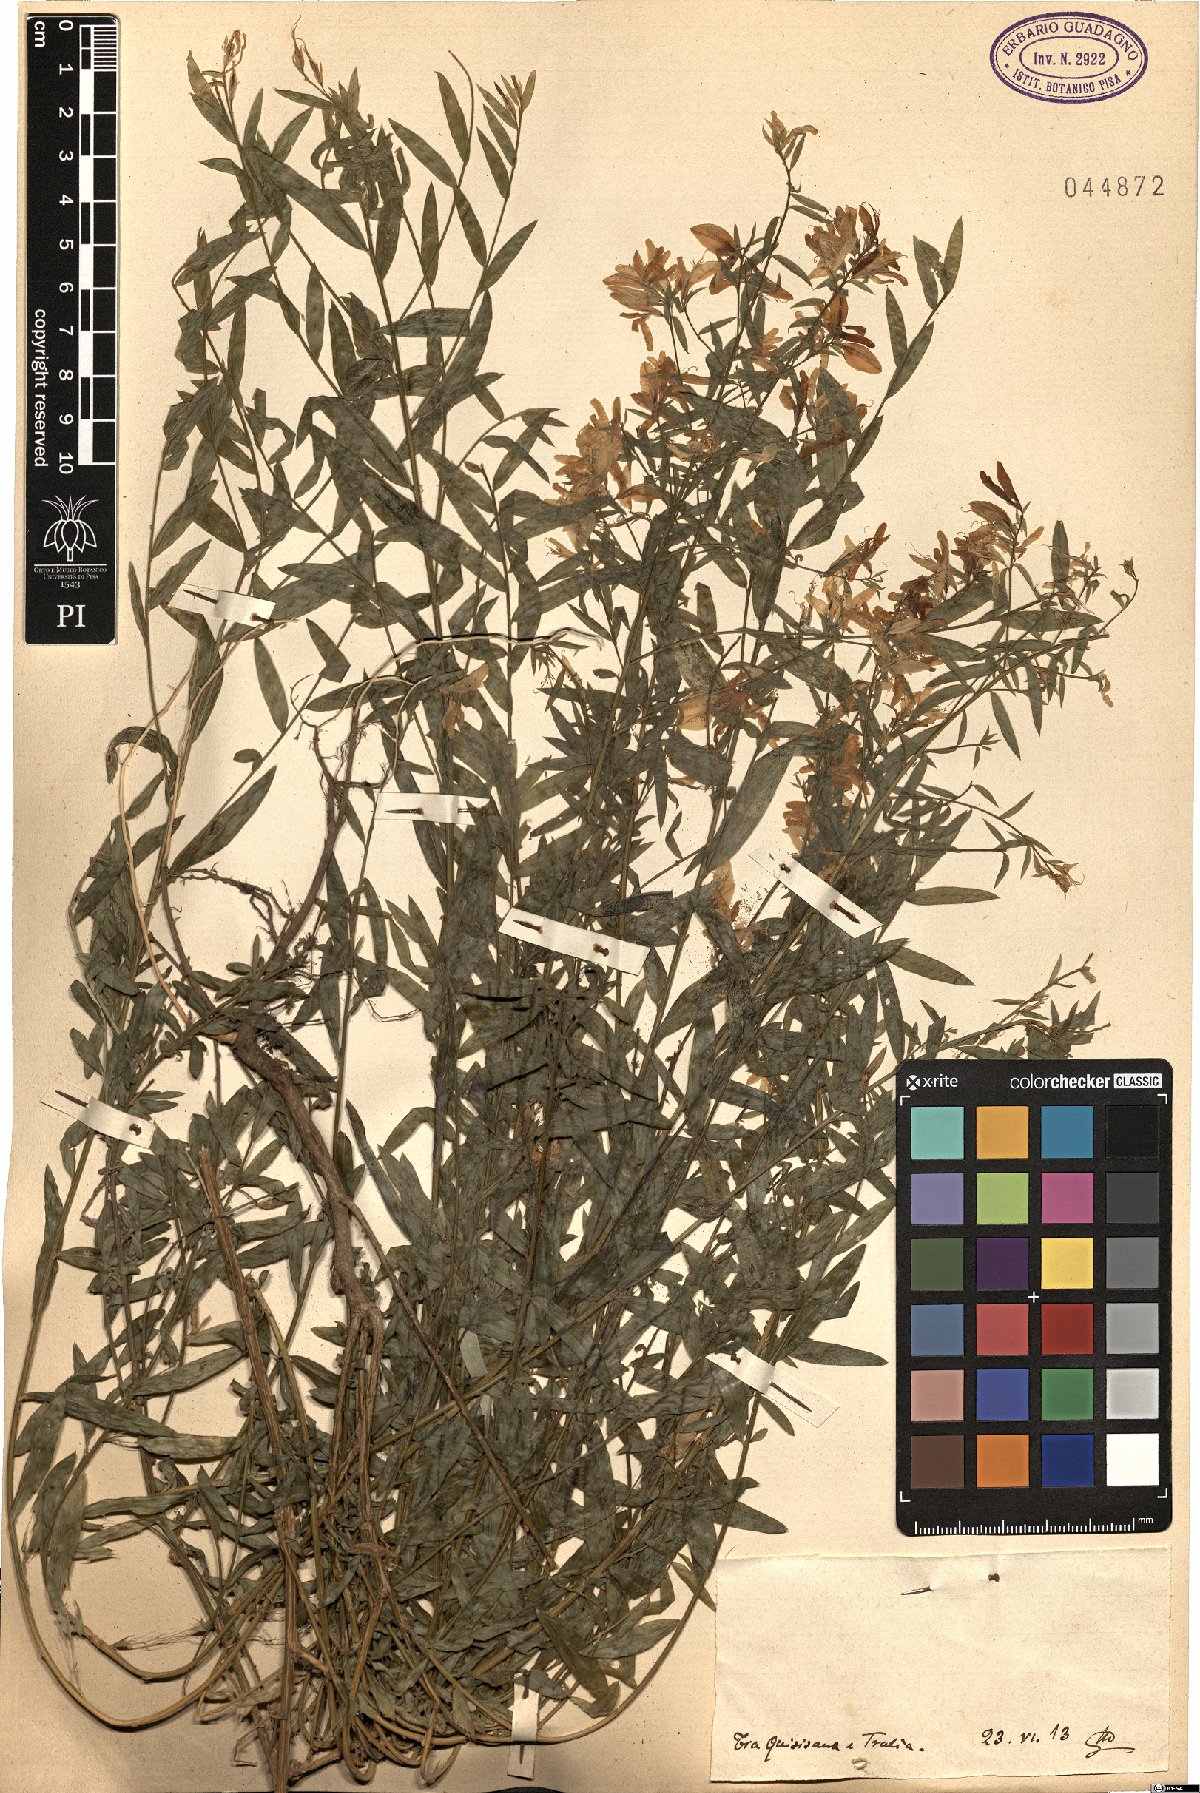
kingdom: Plantae
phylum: Tracheophyta
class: Magnoliopsida
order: Fabales
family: Fabaceae
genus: Genista
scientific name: Genista
